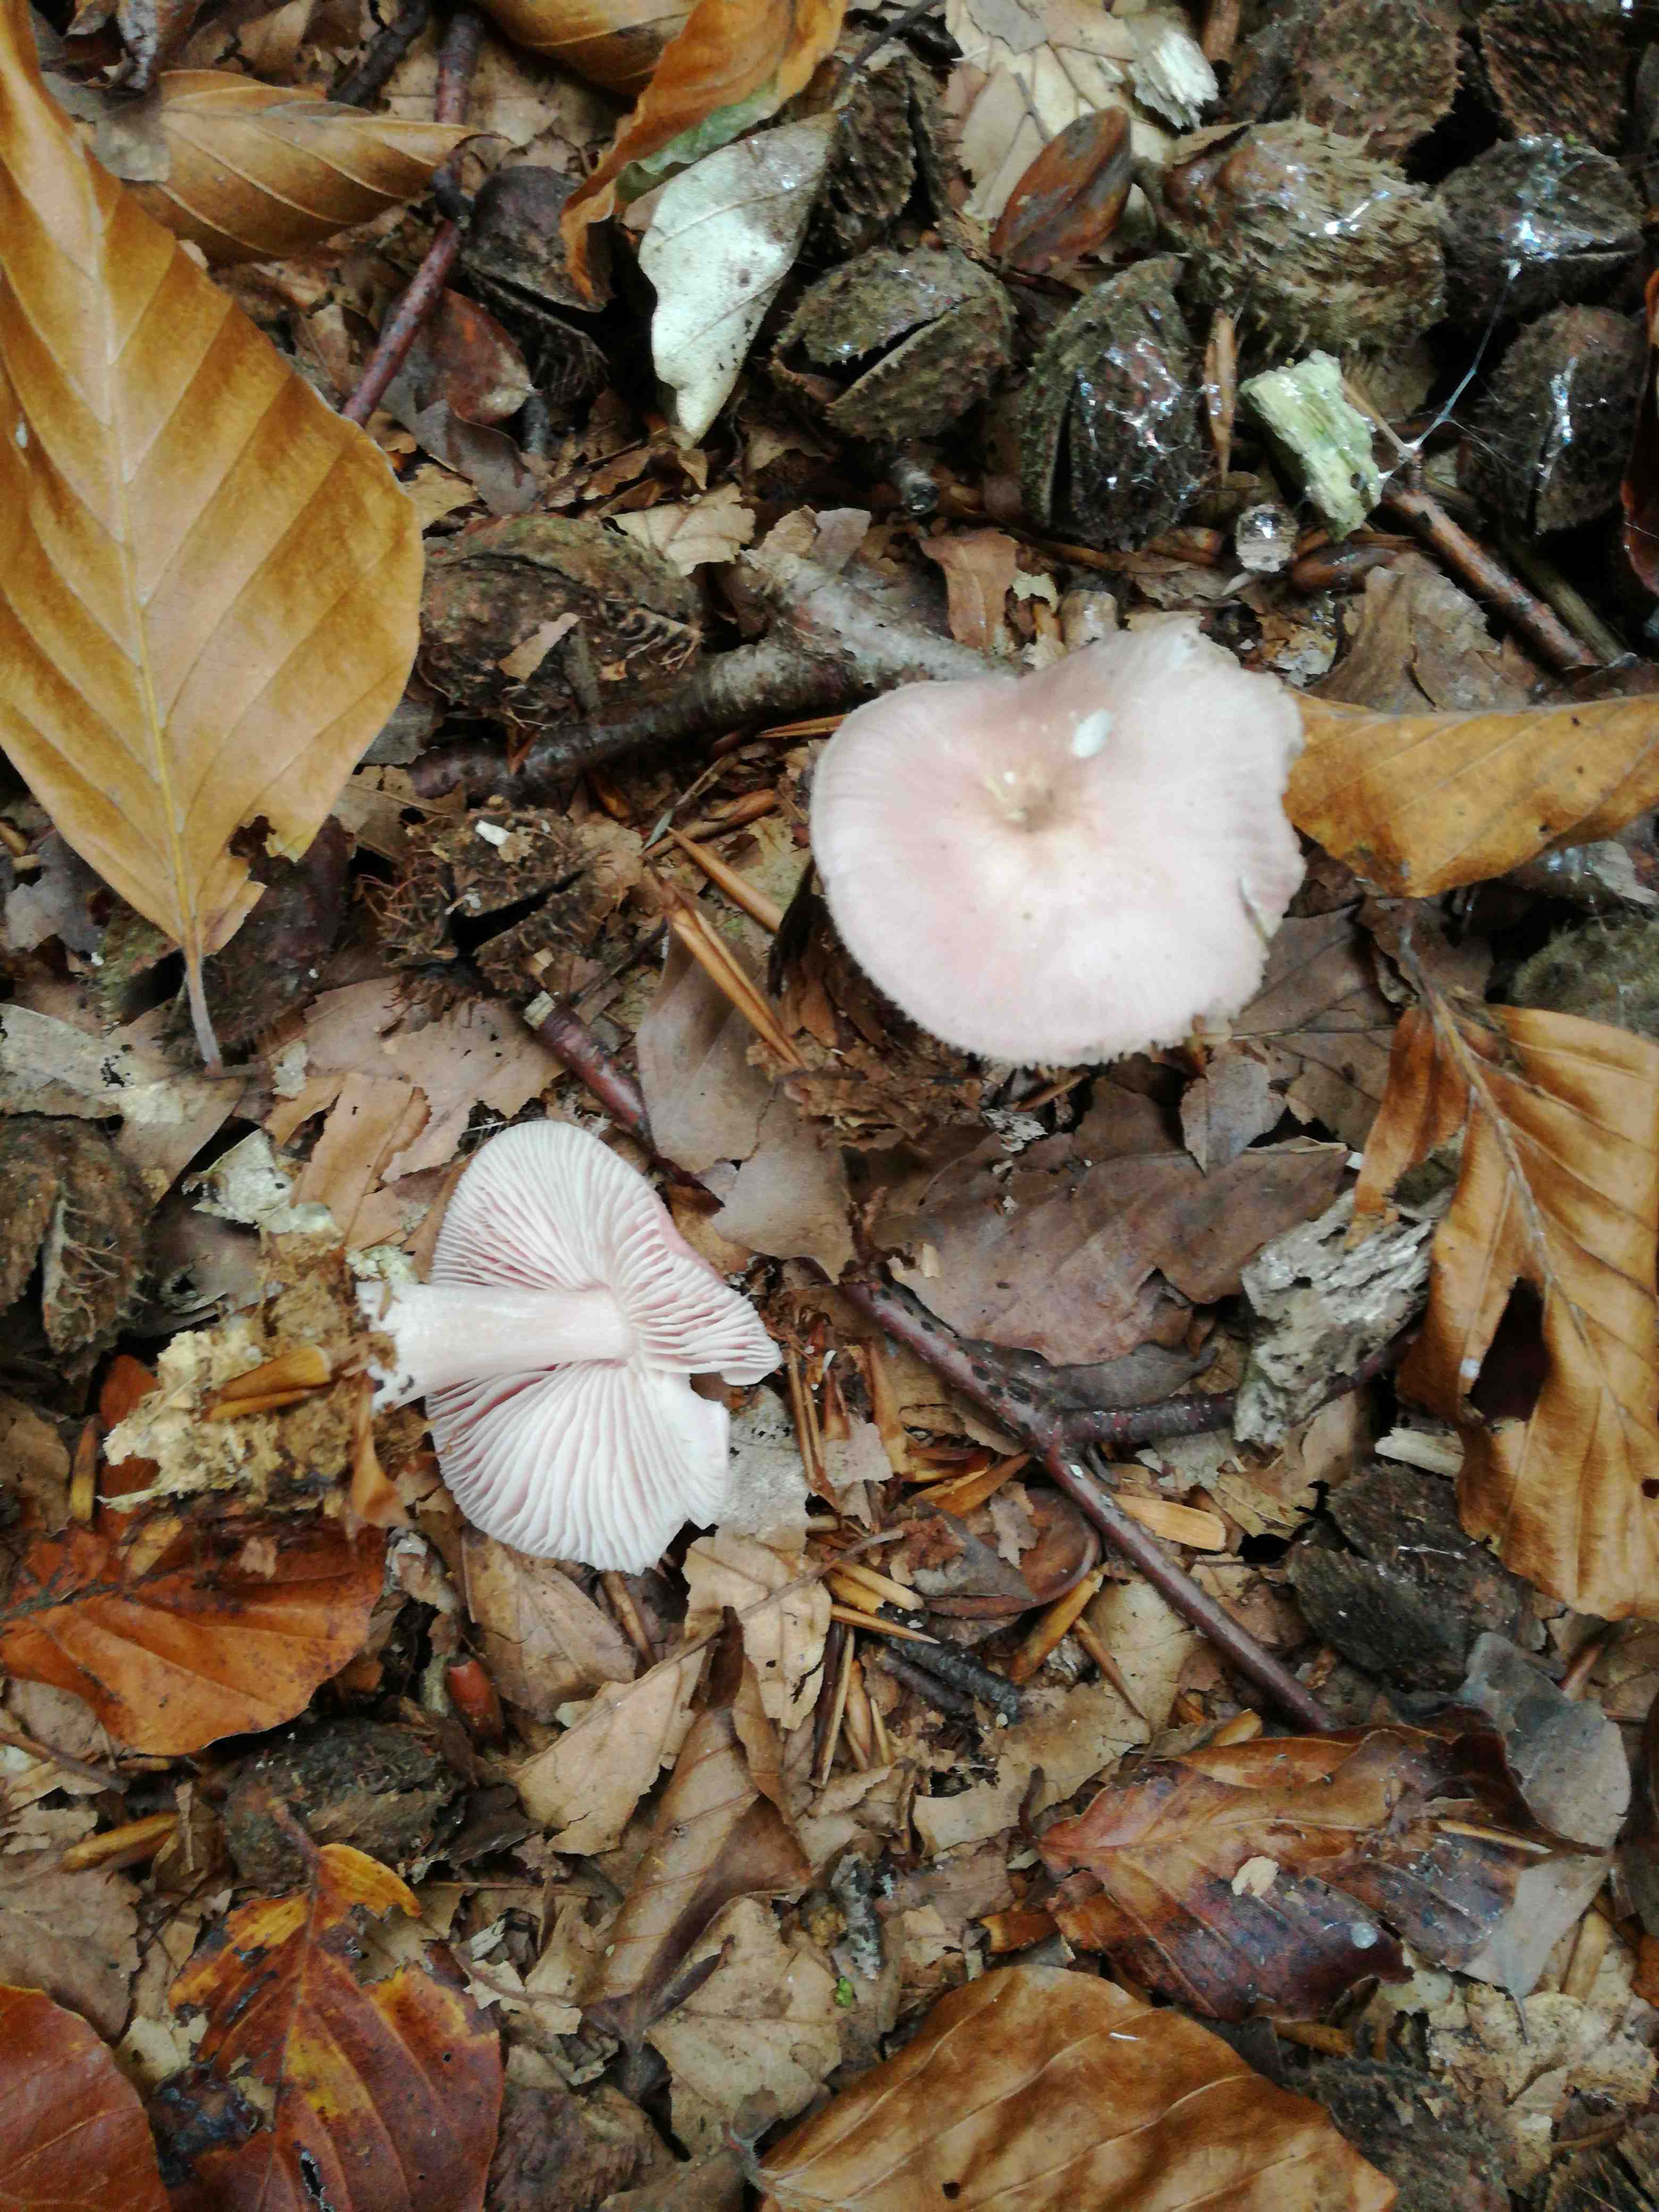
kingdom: Fungi
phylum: Basidiomycota
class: Agaricomycetes
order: Agaricales
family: Mycenaceae
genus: Mycena
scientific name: Mycena rosea
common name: rosa huesvamp
